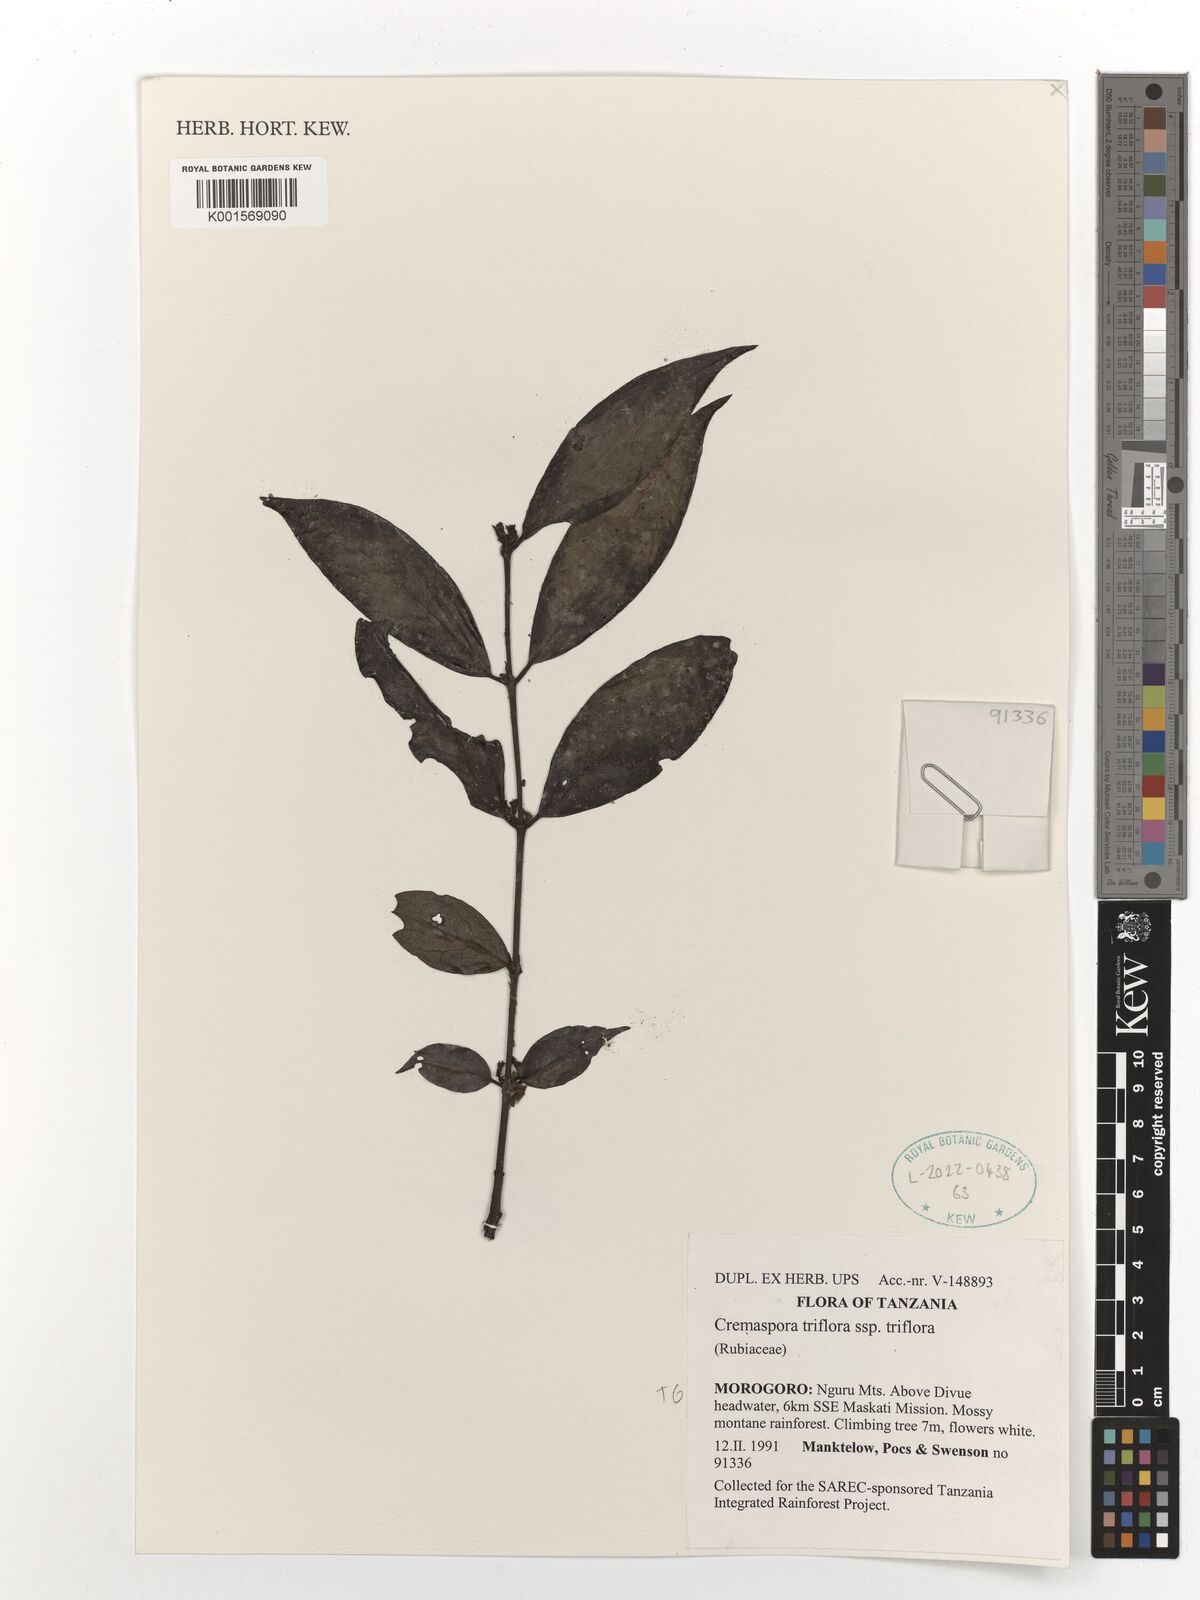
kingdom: Plantae
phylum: Tracheophyta
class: Magnoliopsida
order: Gentianales
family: Rubiaceae
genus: Cremaspora
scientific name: Cremaspora triflora
